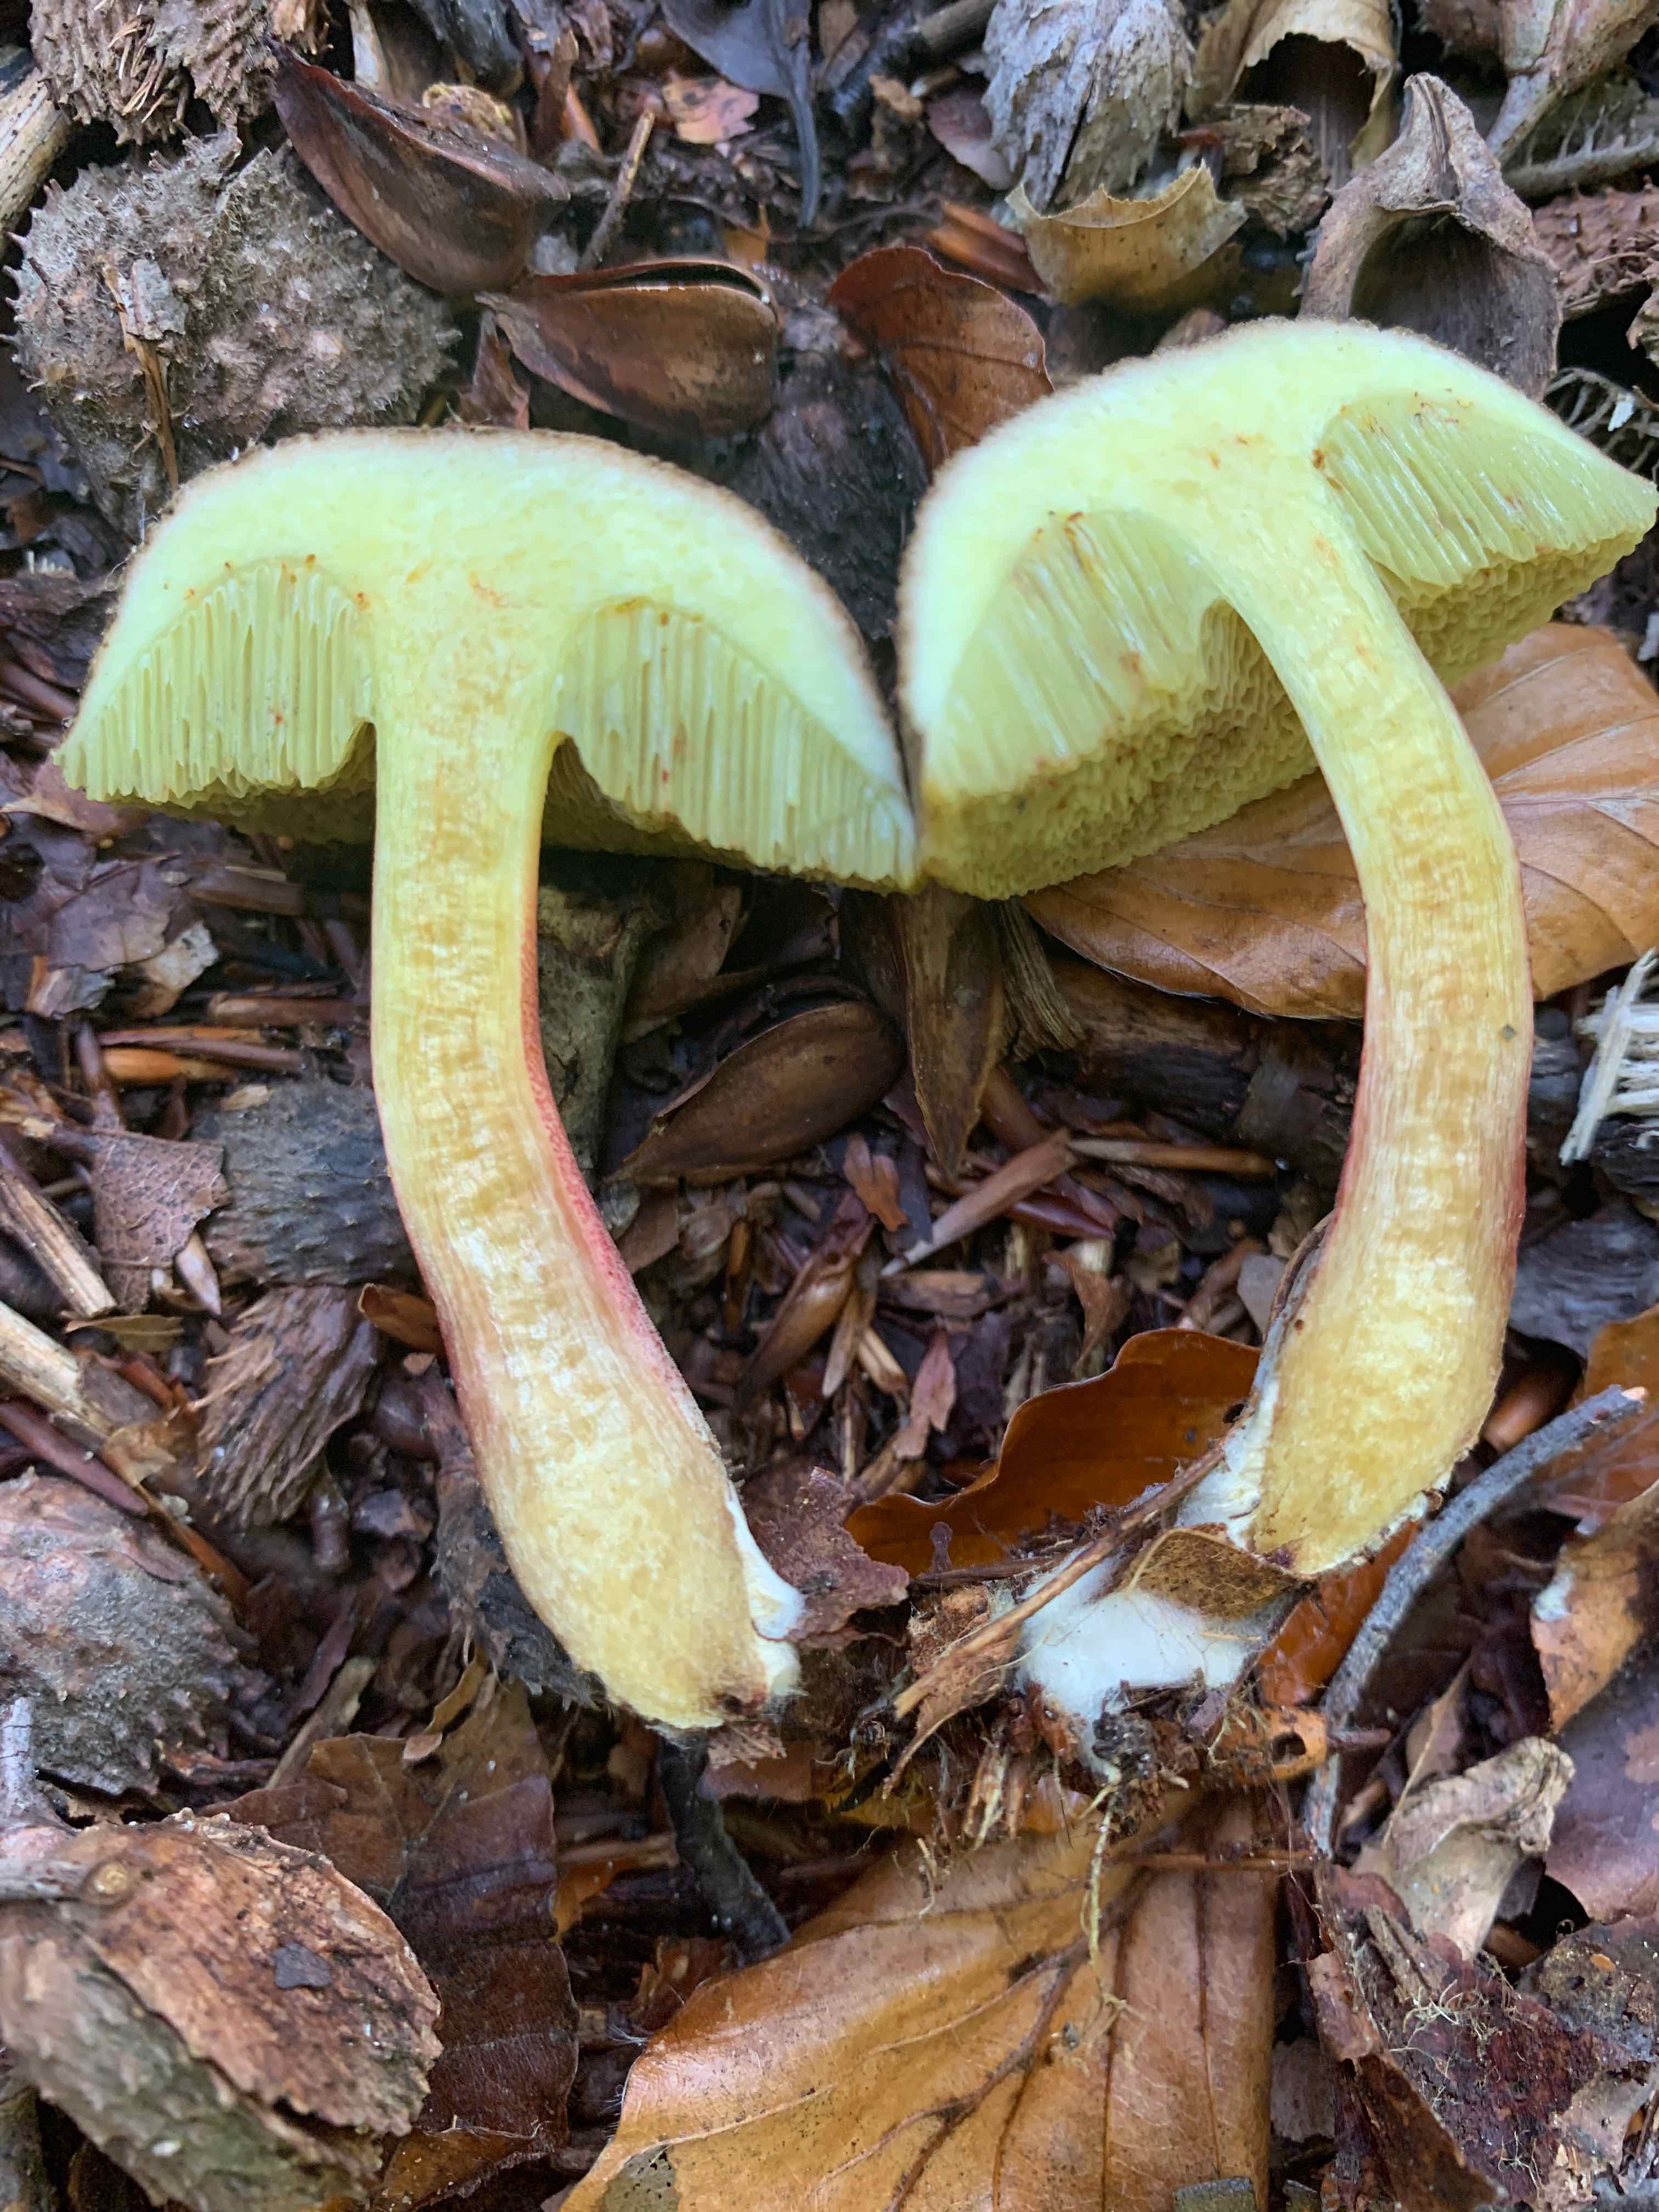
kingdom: Fungi
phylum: Basidiomycota
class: Agaricomycetes
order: Boletales
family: Boletaceae
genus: Xerocomellus
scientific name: Xerocomellus chrysenteron
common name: rødsprukken rørhat
